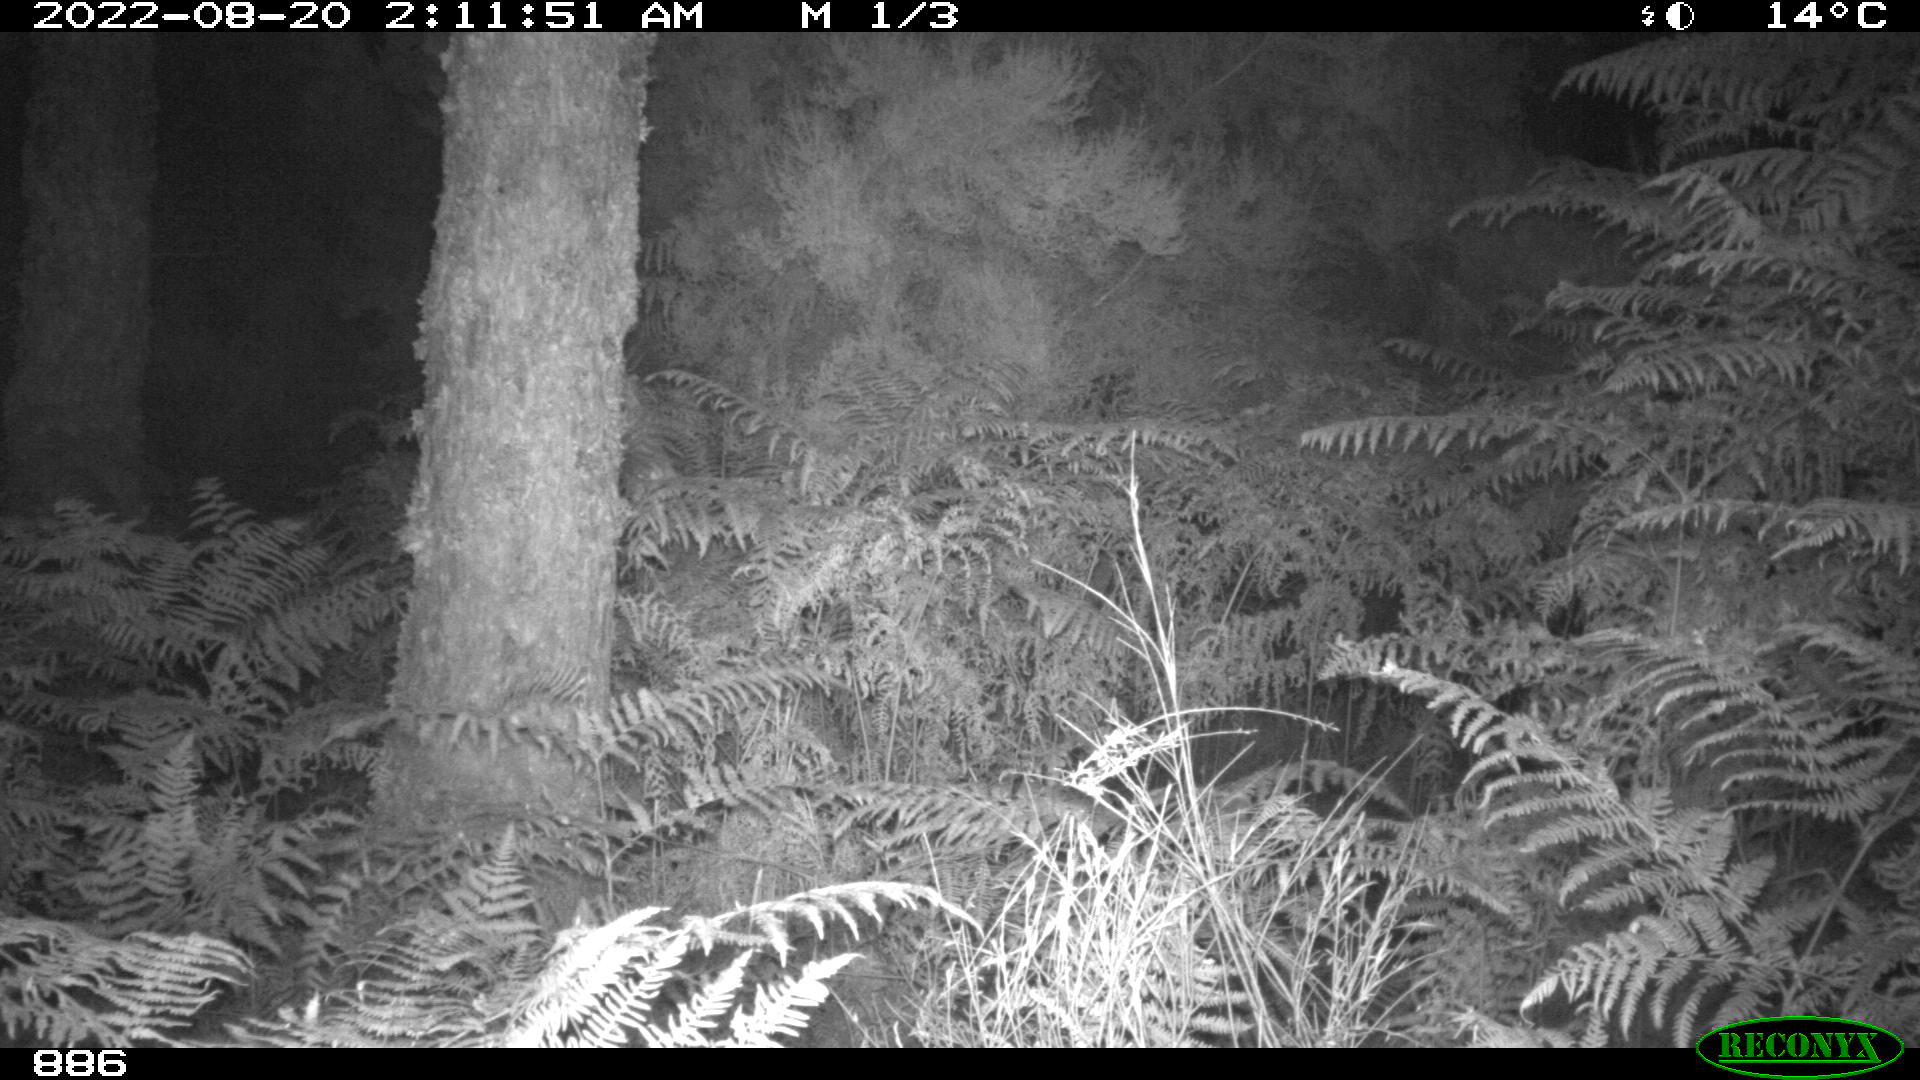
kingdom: Animalia
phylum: Chordata
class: Mammalia
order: Perissodactyla
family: Equidae
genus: Equus
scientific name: Equus caballus
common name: Horse
